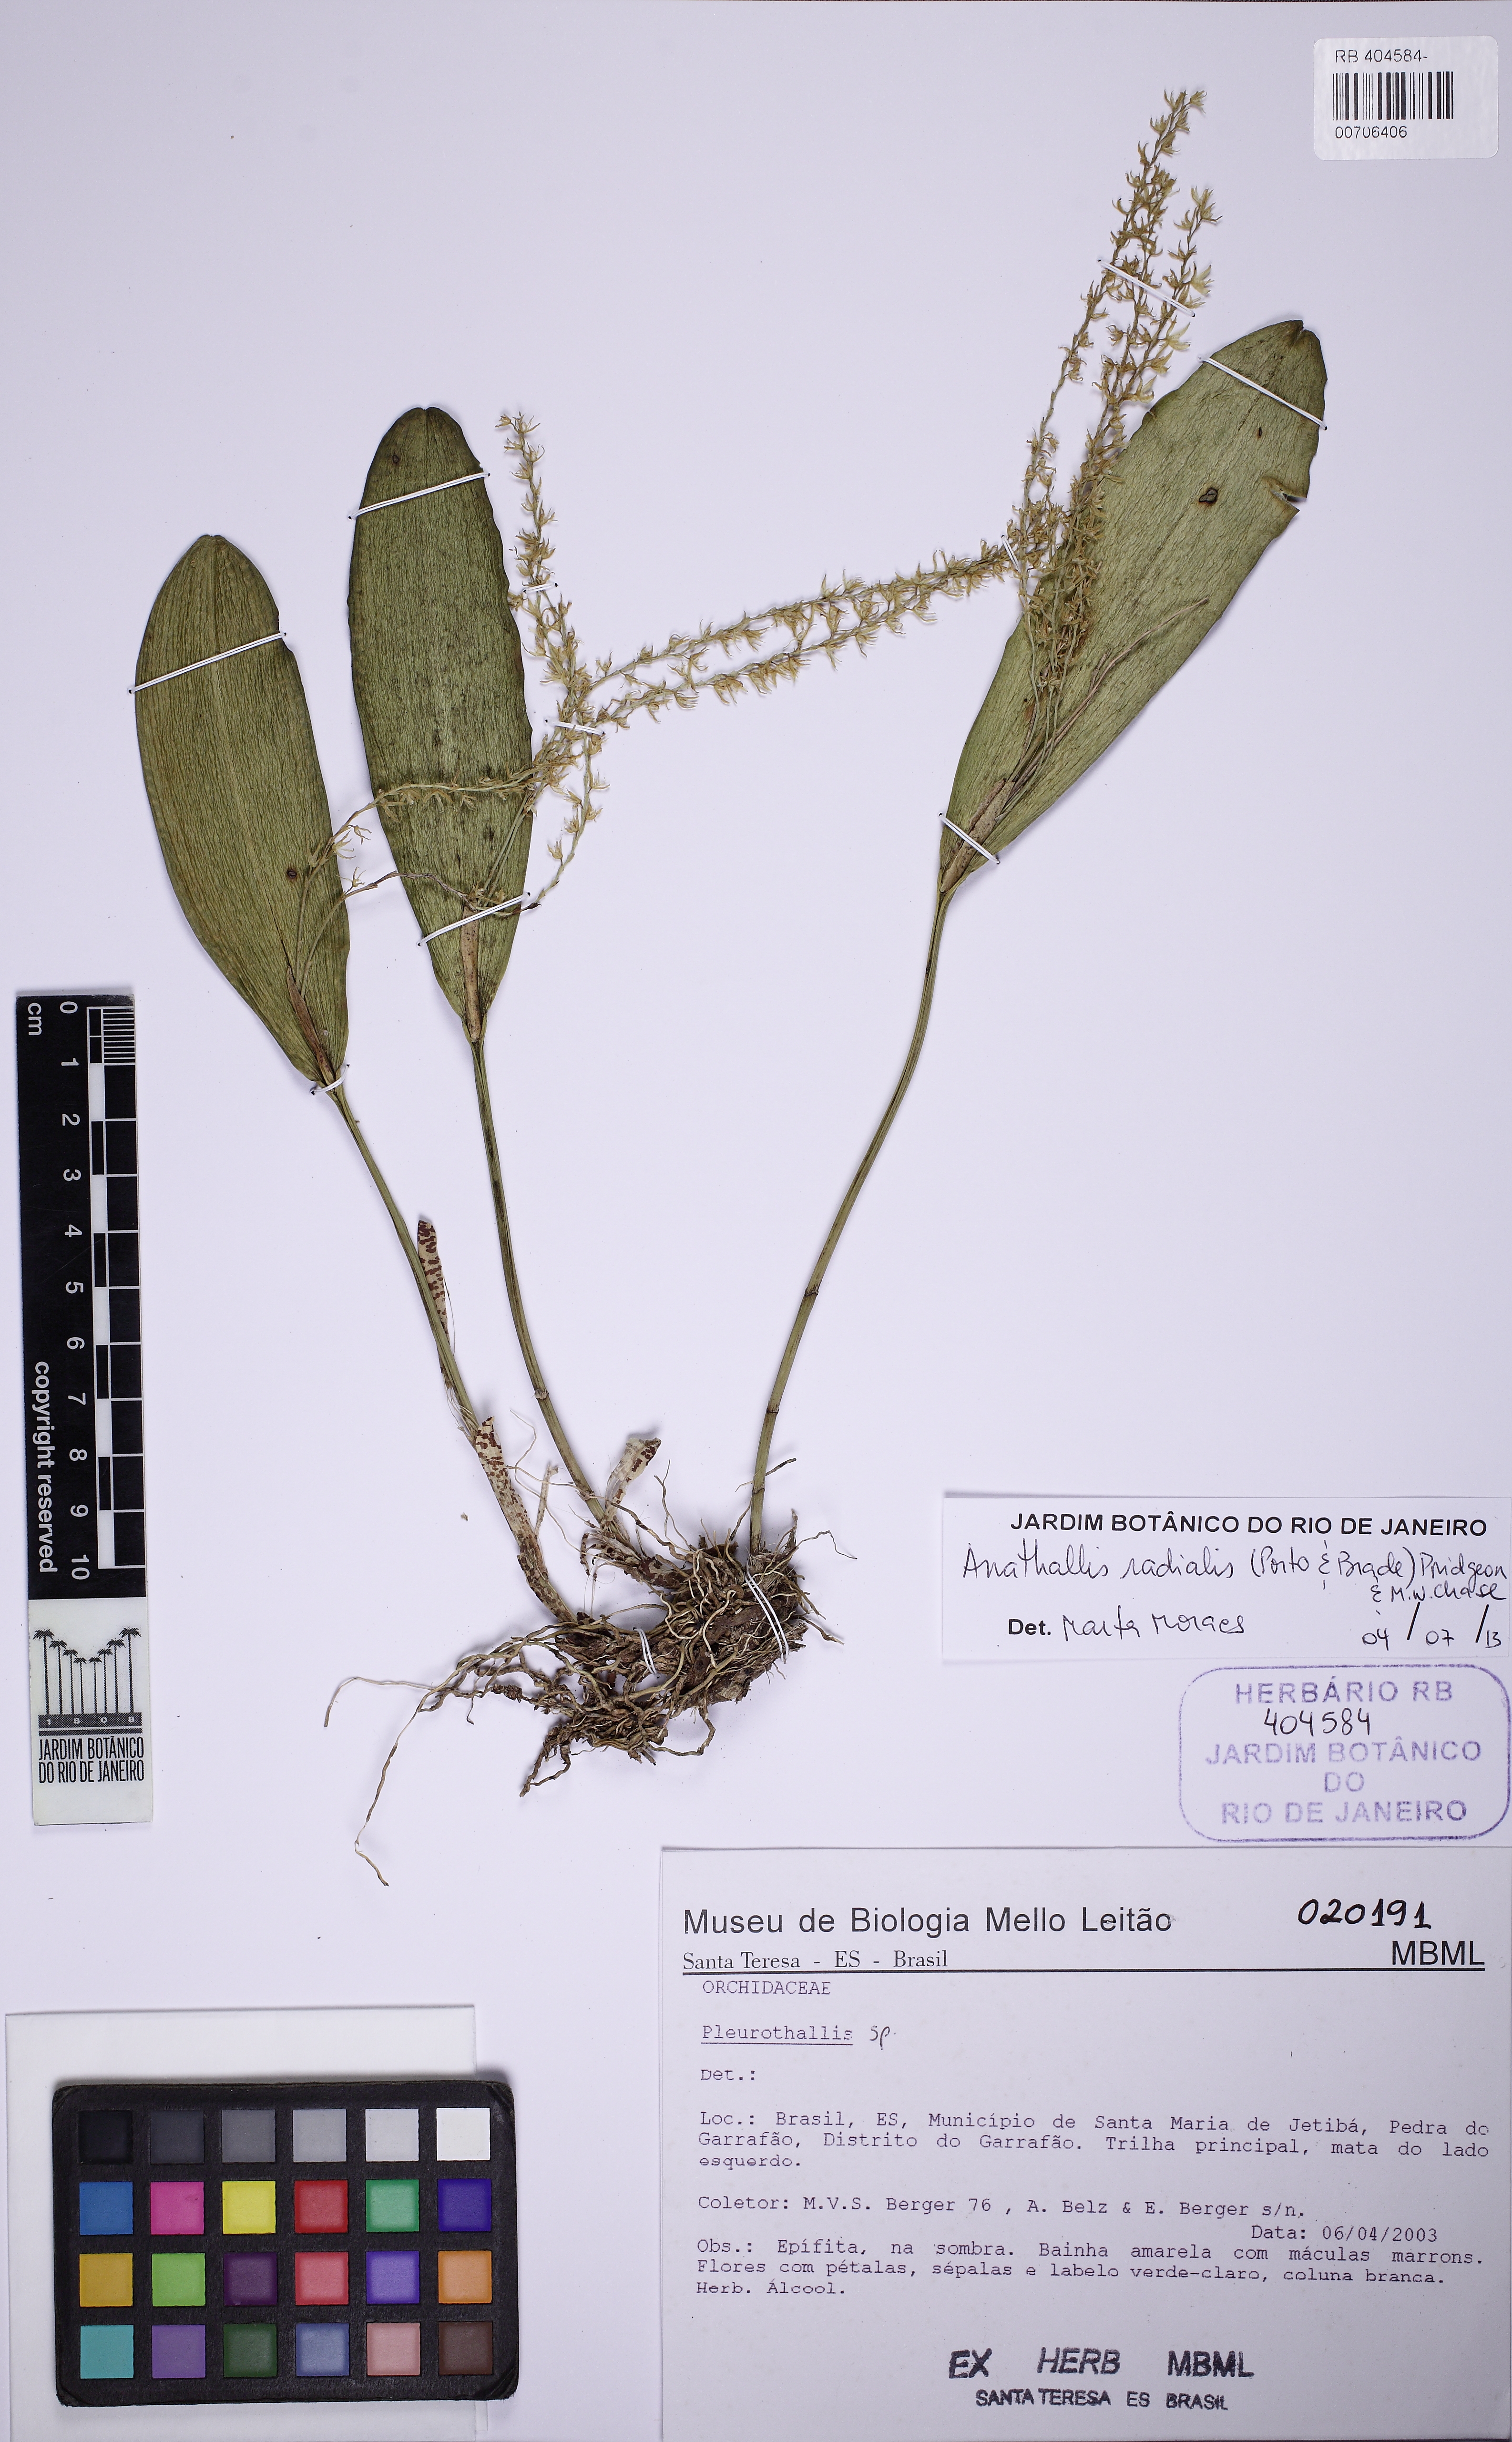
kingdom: Plantae
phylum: Tracheophyta
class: Liliopsida
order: Asparagales
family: Orchidaceae
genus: Anathallis
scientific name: Anathallis radialis
